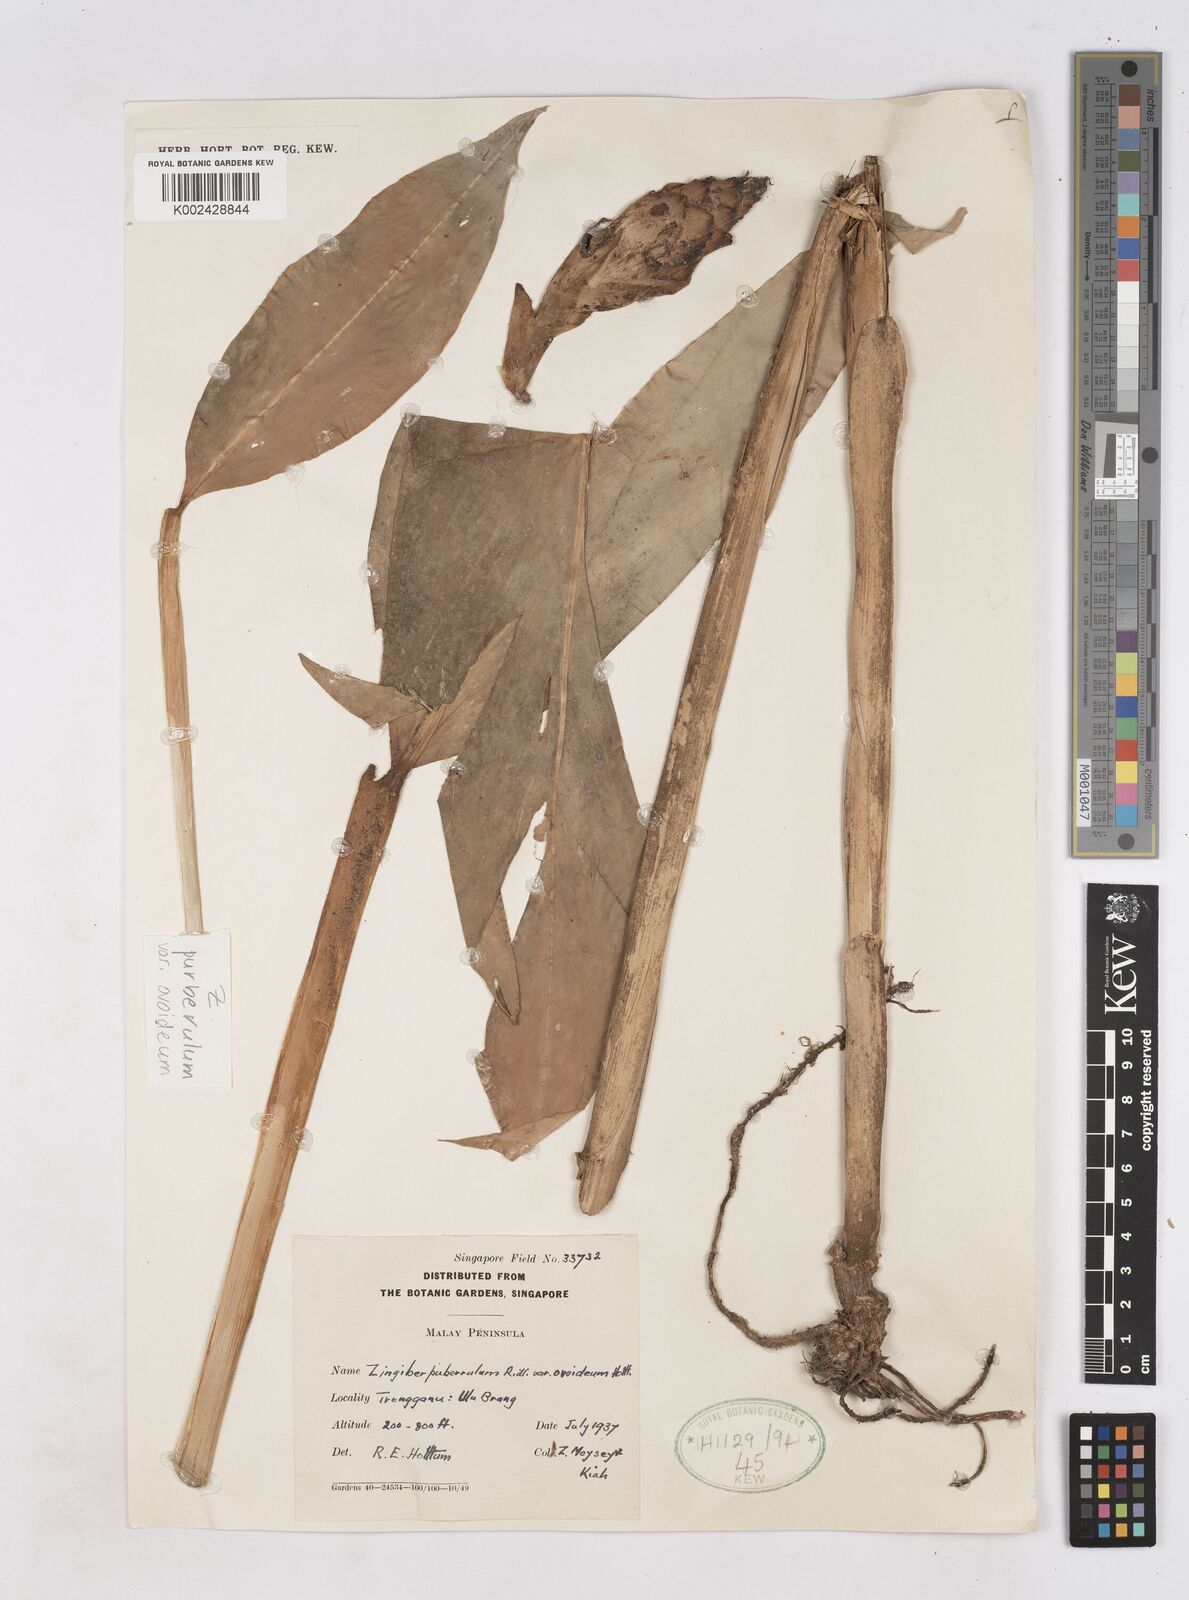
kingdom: Plantae
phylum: Tracheophyta
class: Liliopsida
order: Zingiberales
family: Zingiberaceae
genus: Zingiber
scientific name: Zingiber puberulum
